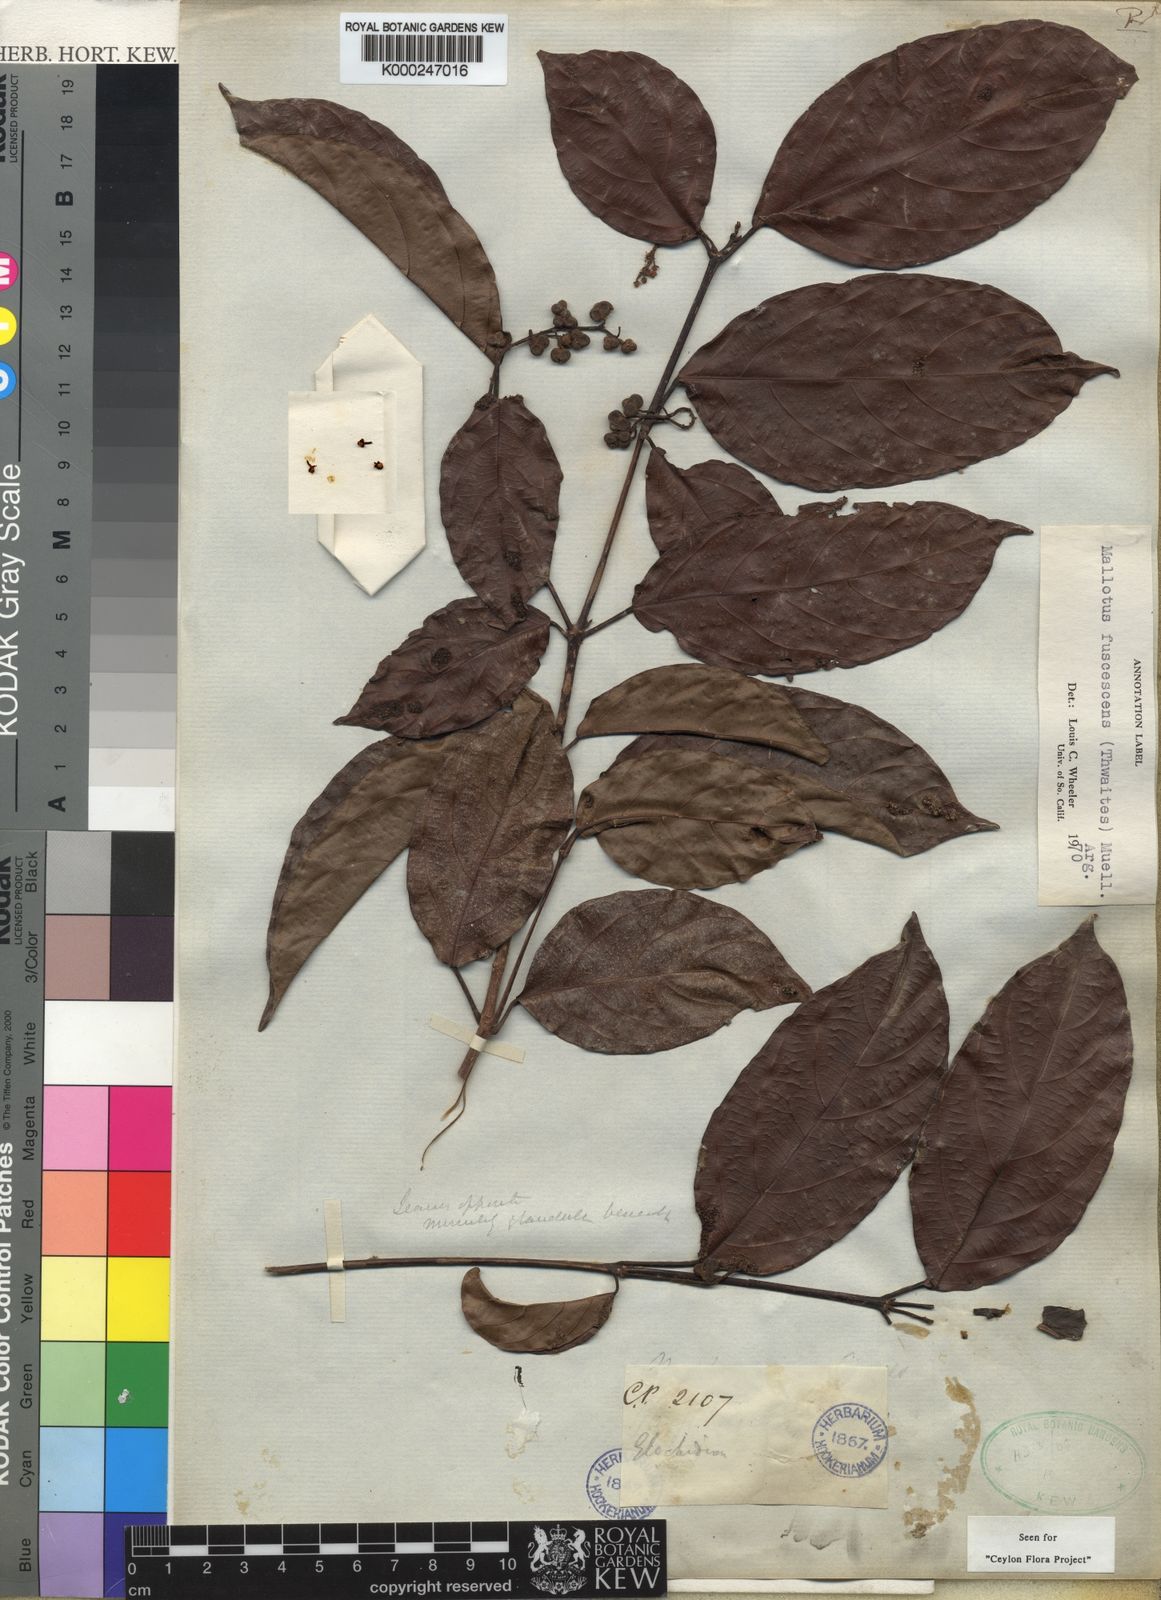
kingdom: Plantae
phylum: Tracheophyta
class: Magnoliopsida
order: Malpighiales
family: Euphorbiaceae
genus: Mallotus
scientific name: Mallotus
